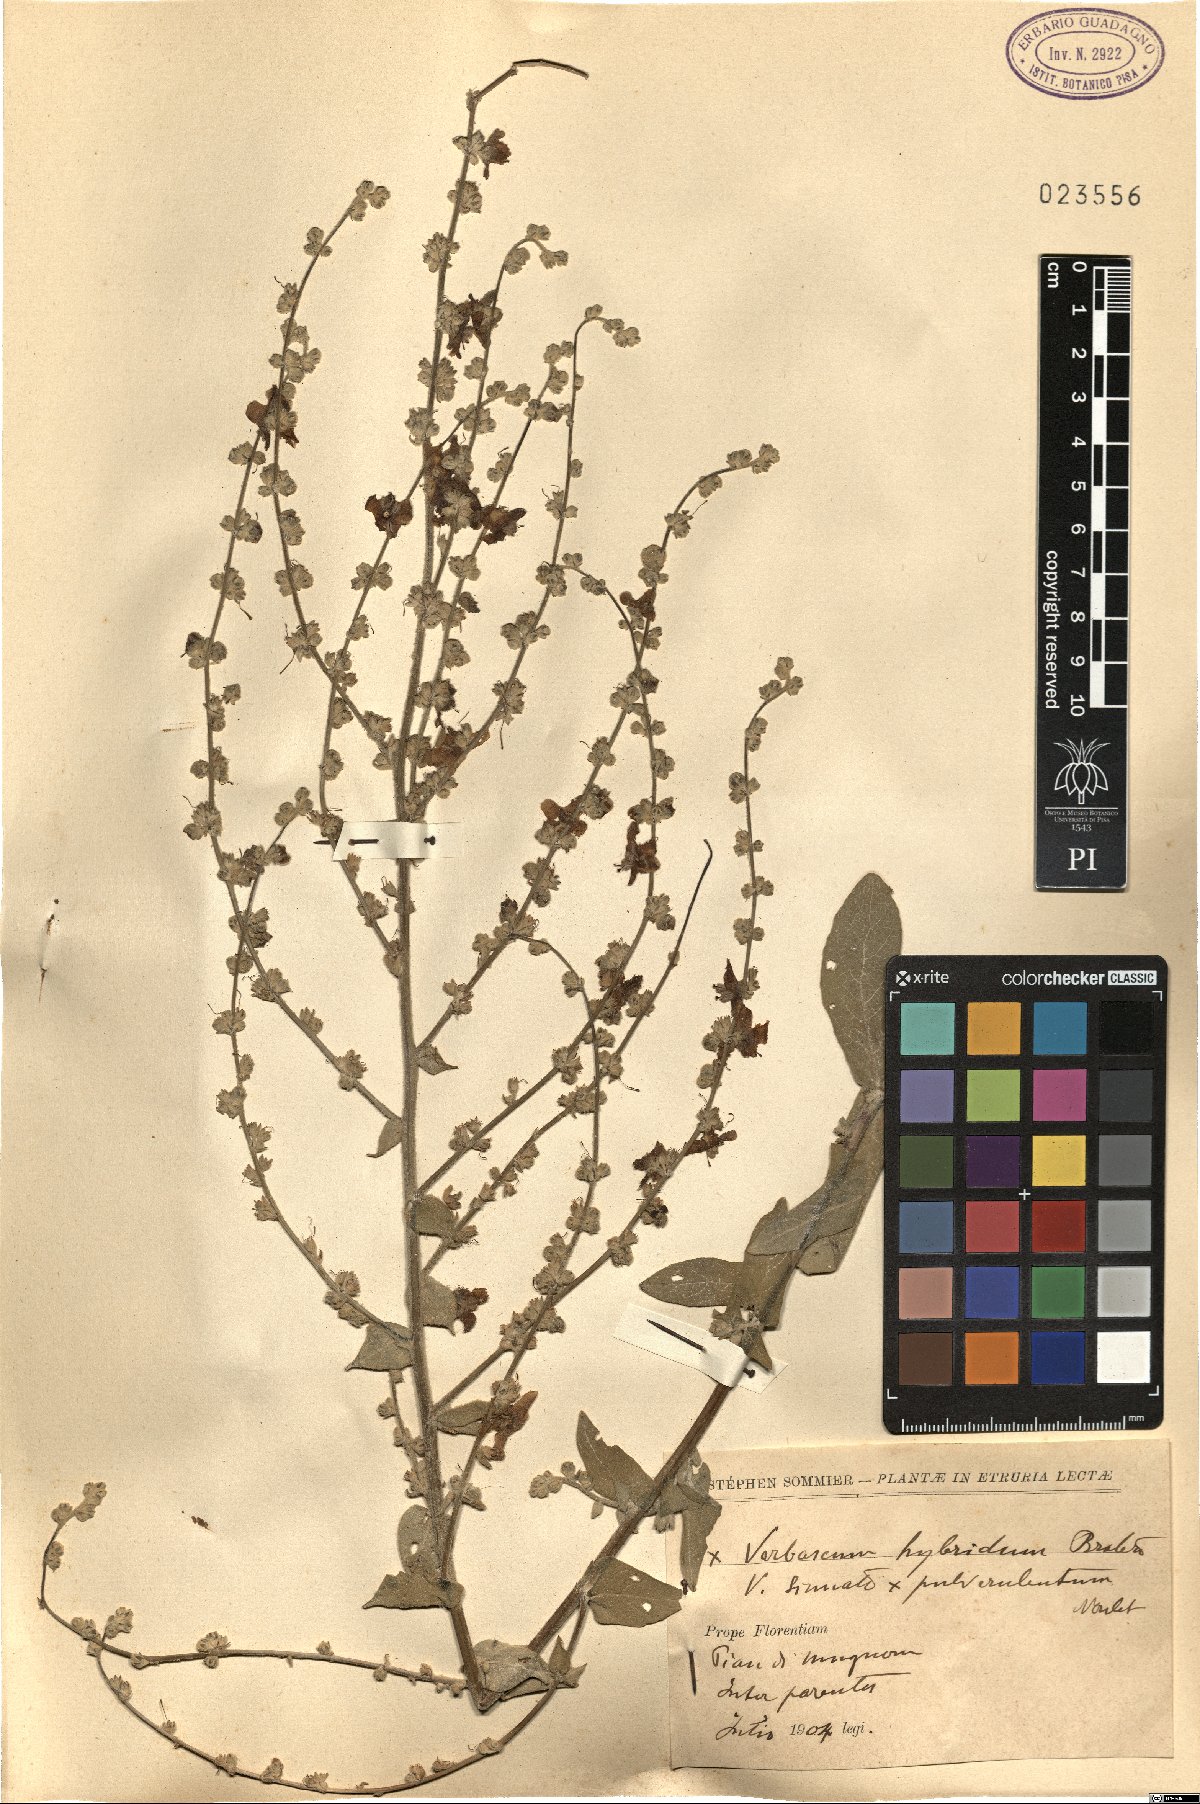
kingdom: Plantae
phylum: Tracheophyta
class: Magnoliopsida
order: Lamiales
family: Scrophulariaceae
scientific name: Scrophulariaceae
